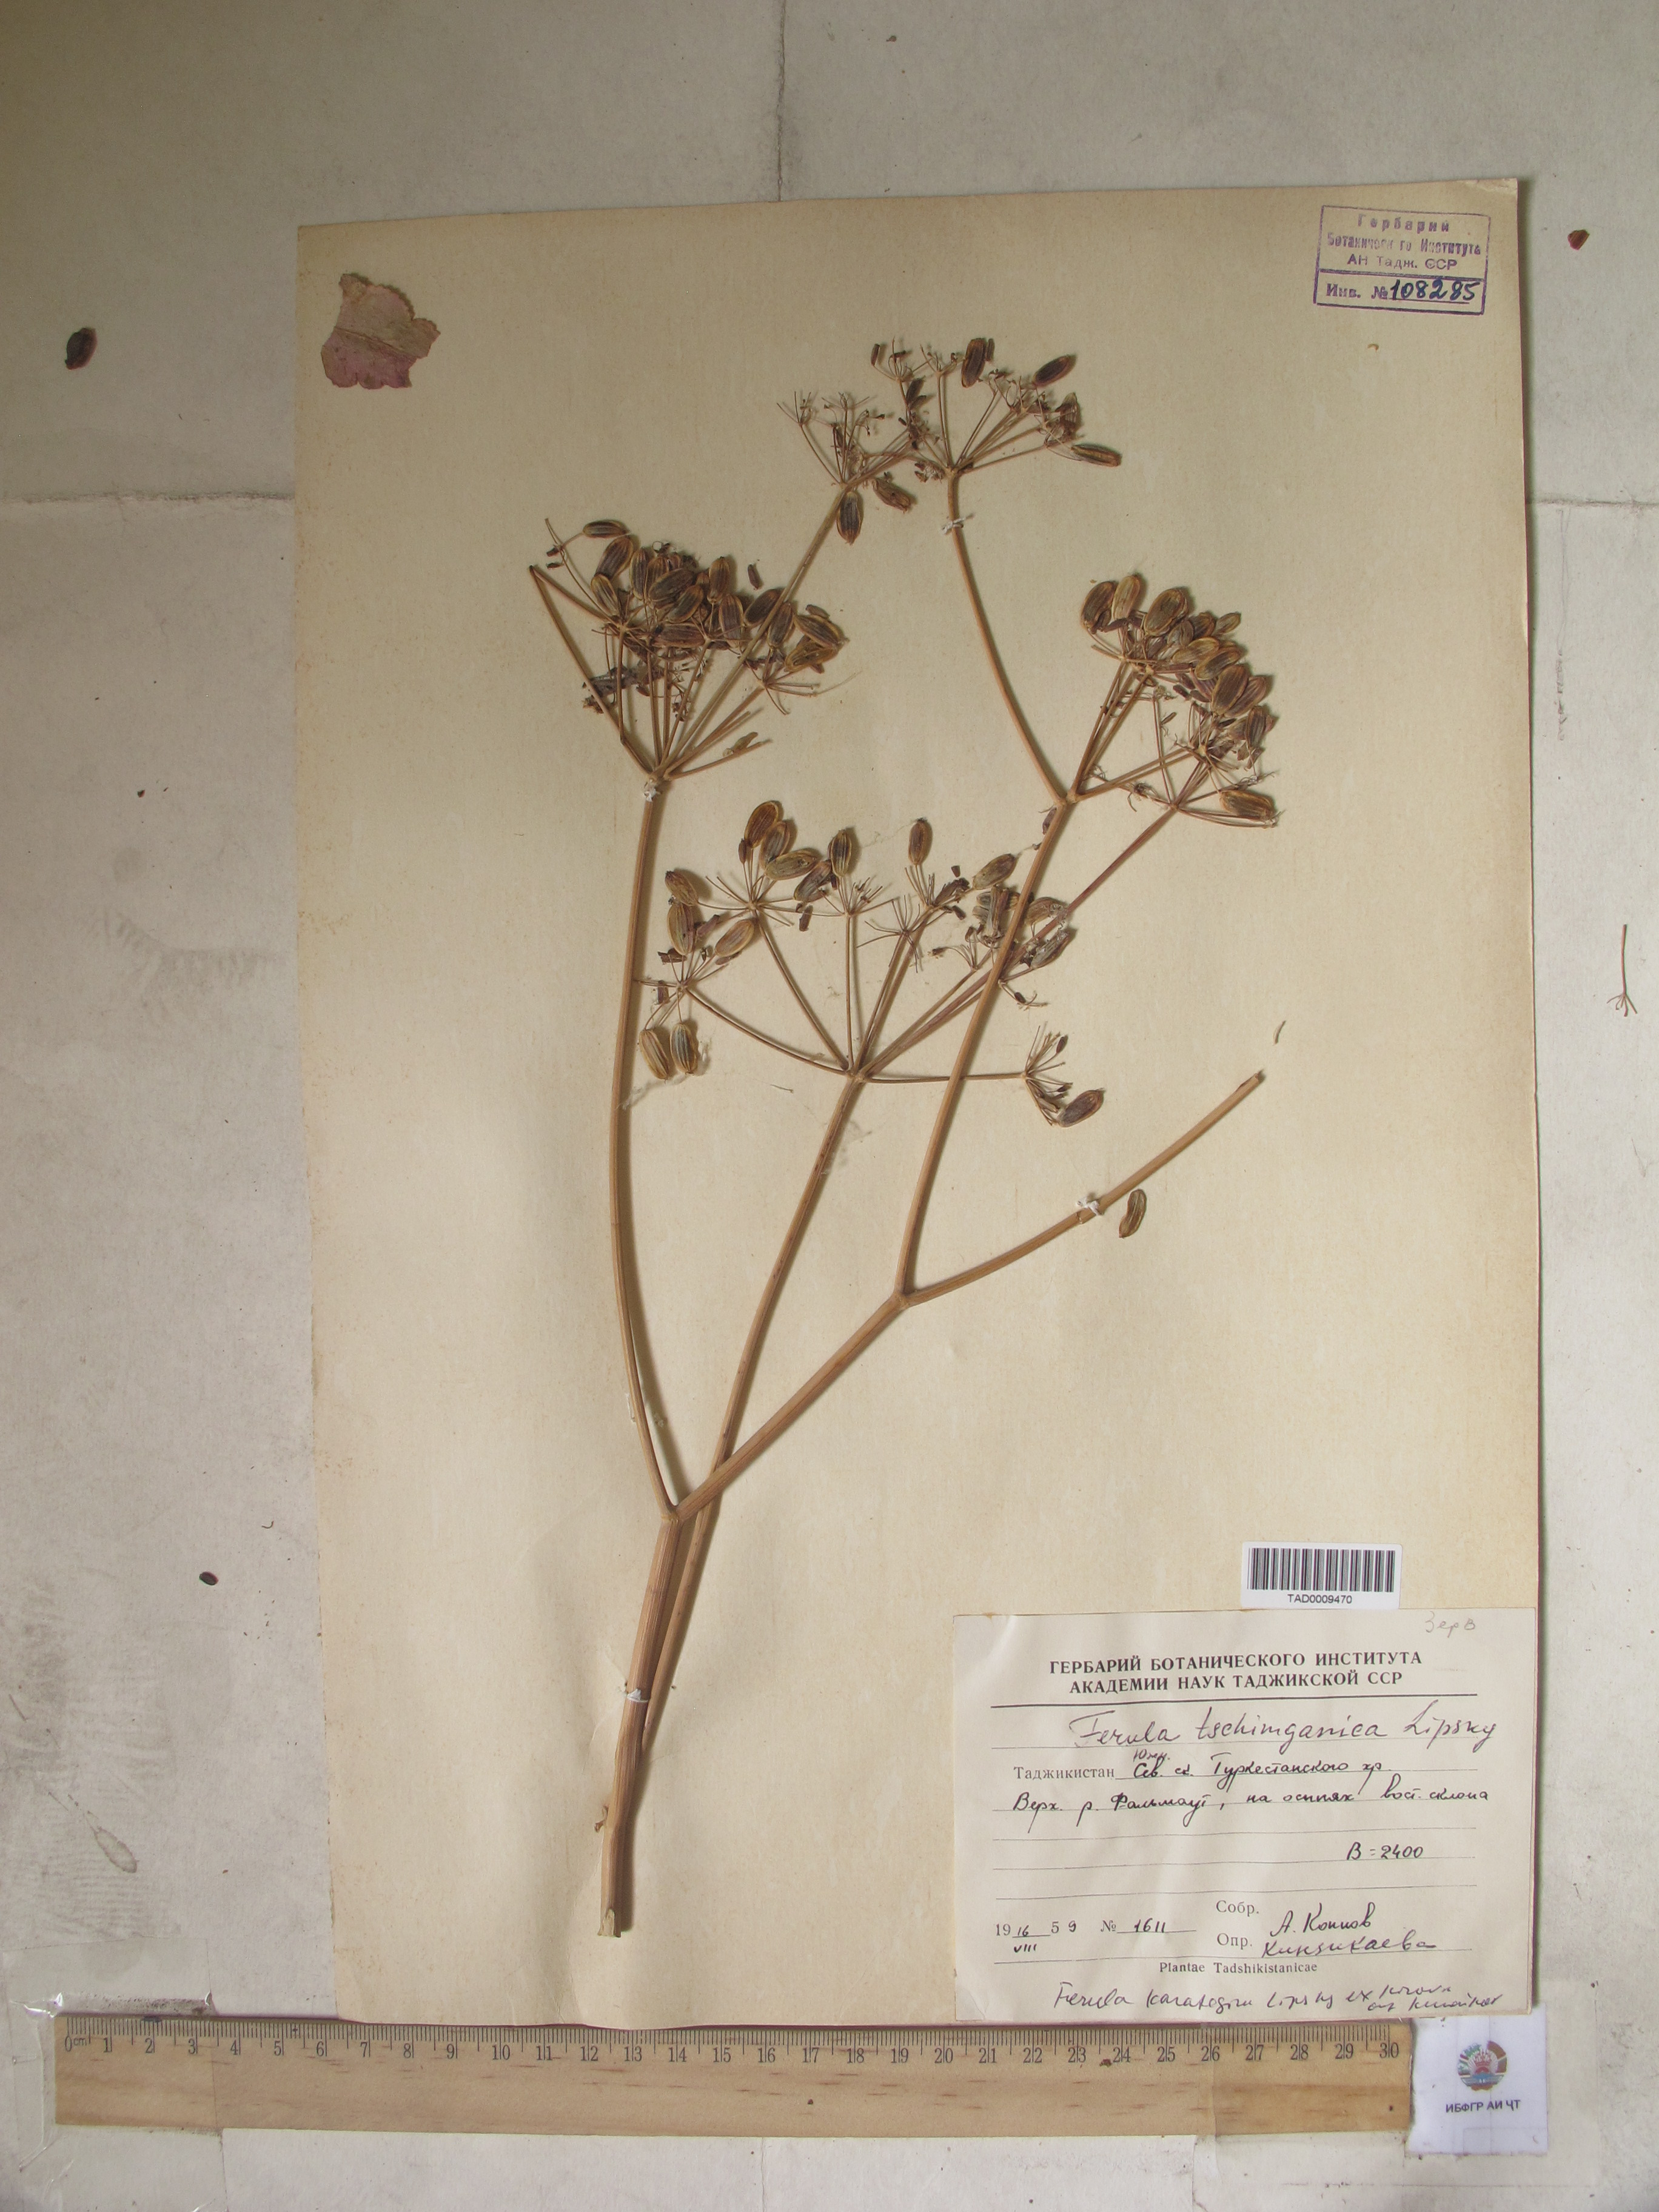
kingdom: Plantae
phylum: Tracheophyta
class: Magnoliopsida
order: Apiales
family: Apiaceae
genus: Ferula
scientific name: Ferula tschimganica
